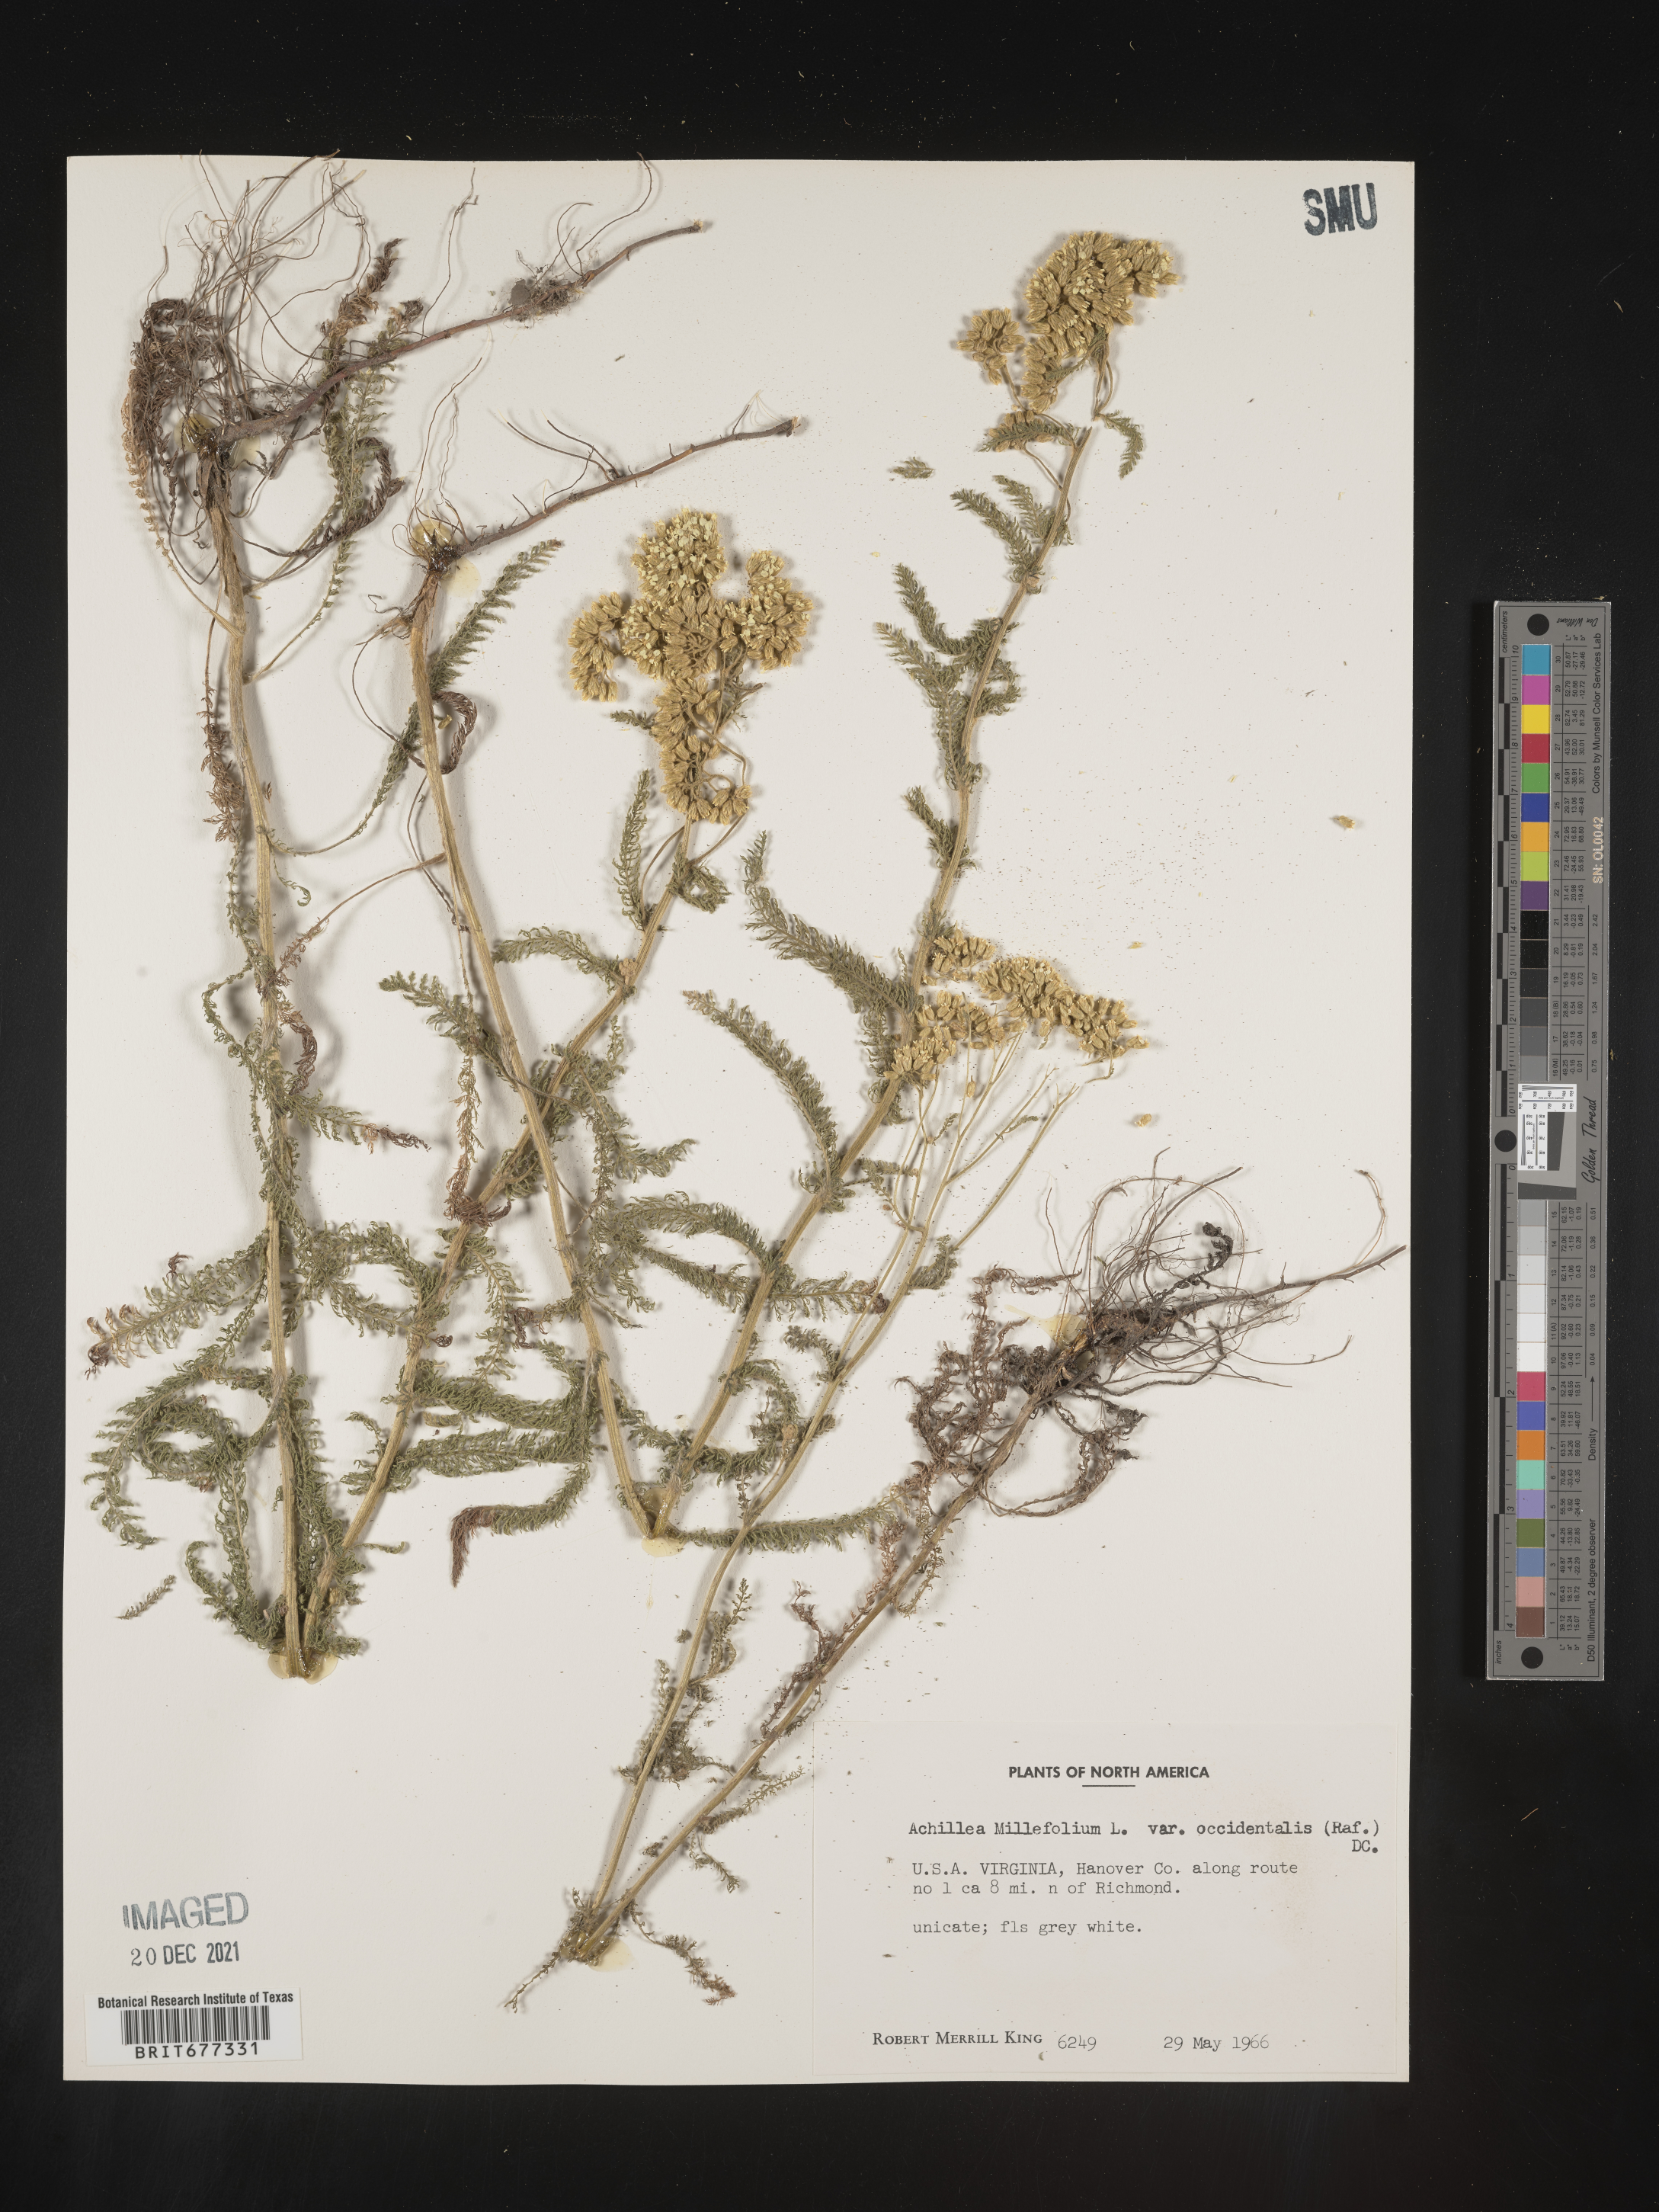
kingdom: Plantae
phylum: Tracheophyta
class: Magnoliopsida
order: Asterales
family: Asteraceae
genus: Achillea
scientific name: Achillea millefolium
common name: Yarrow
